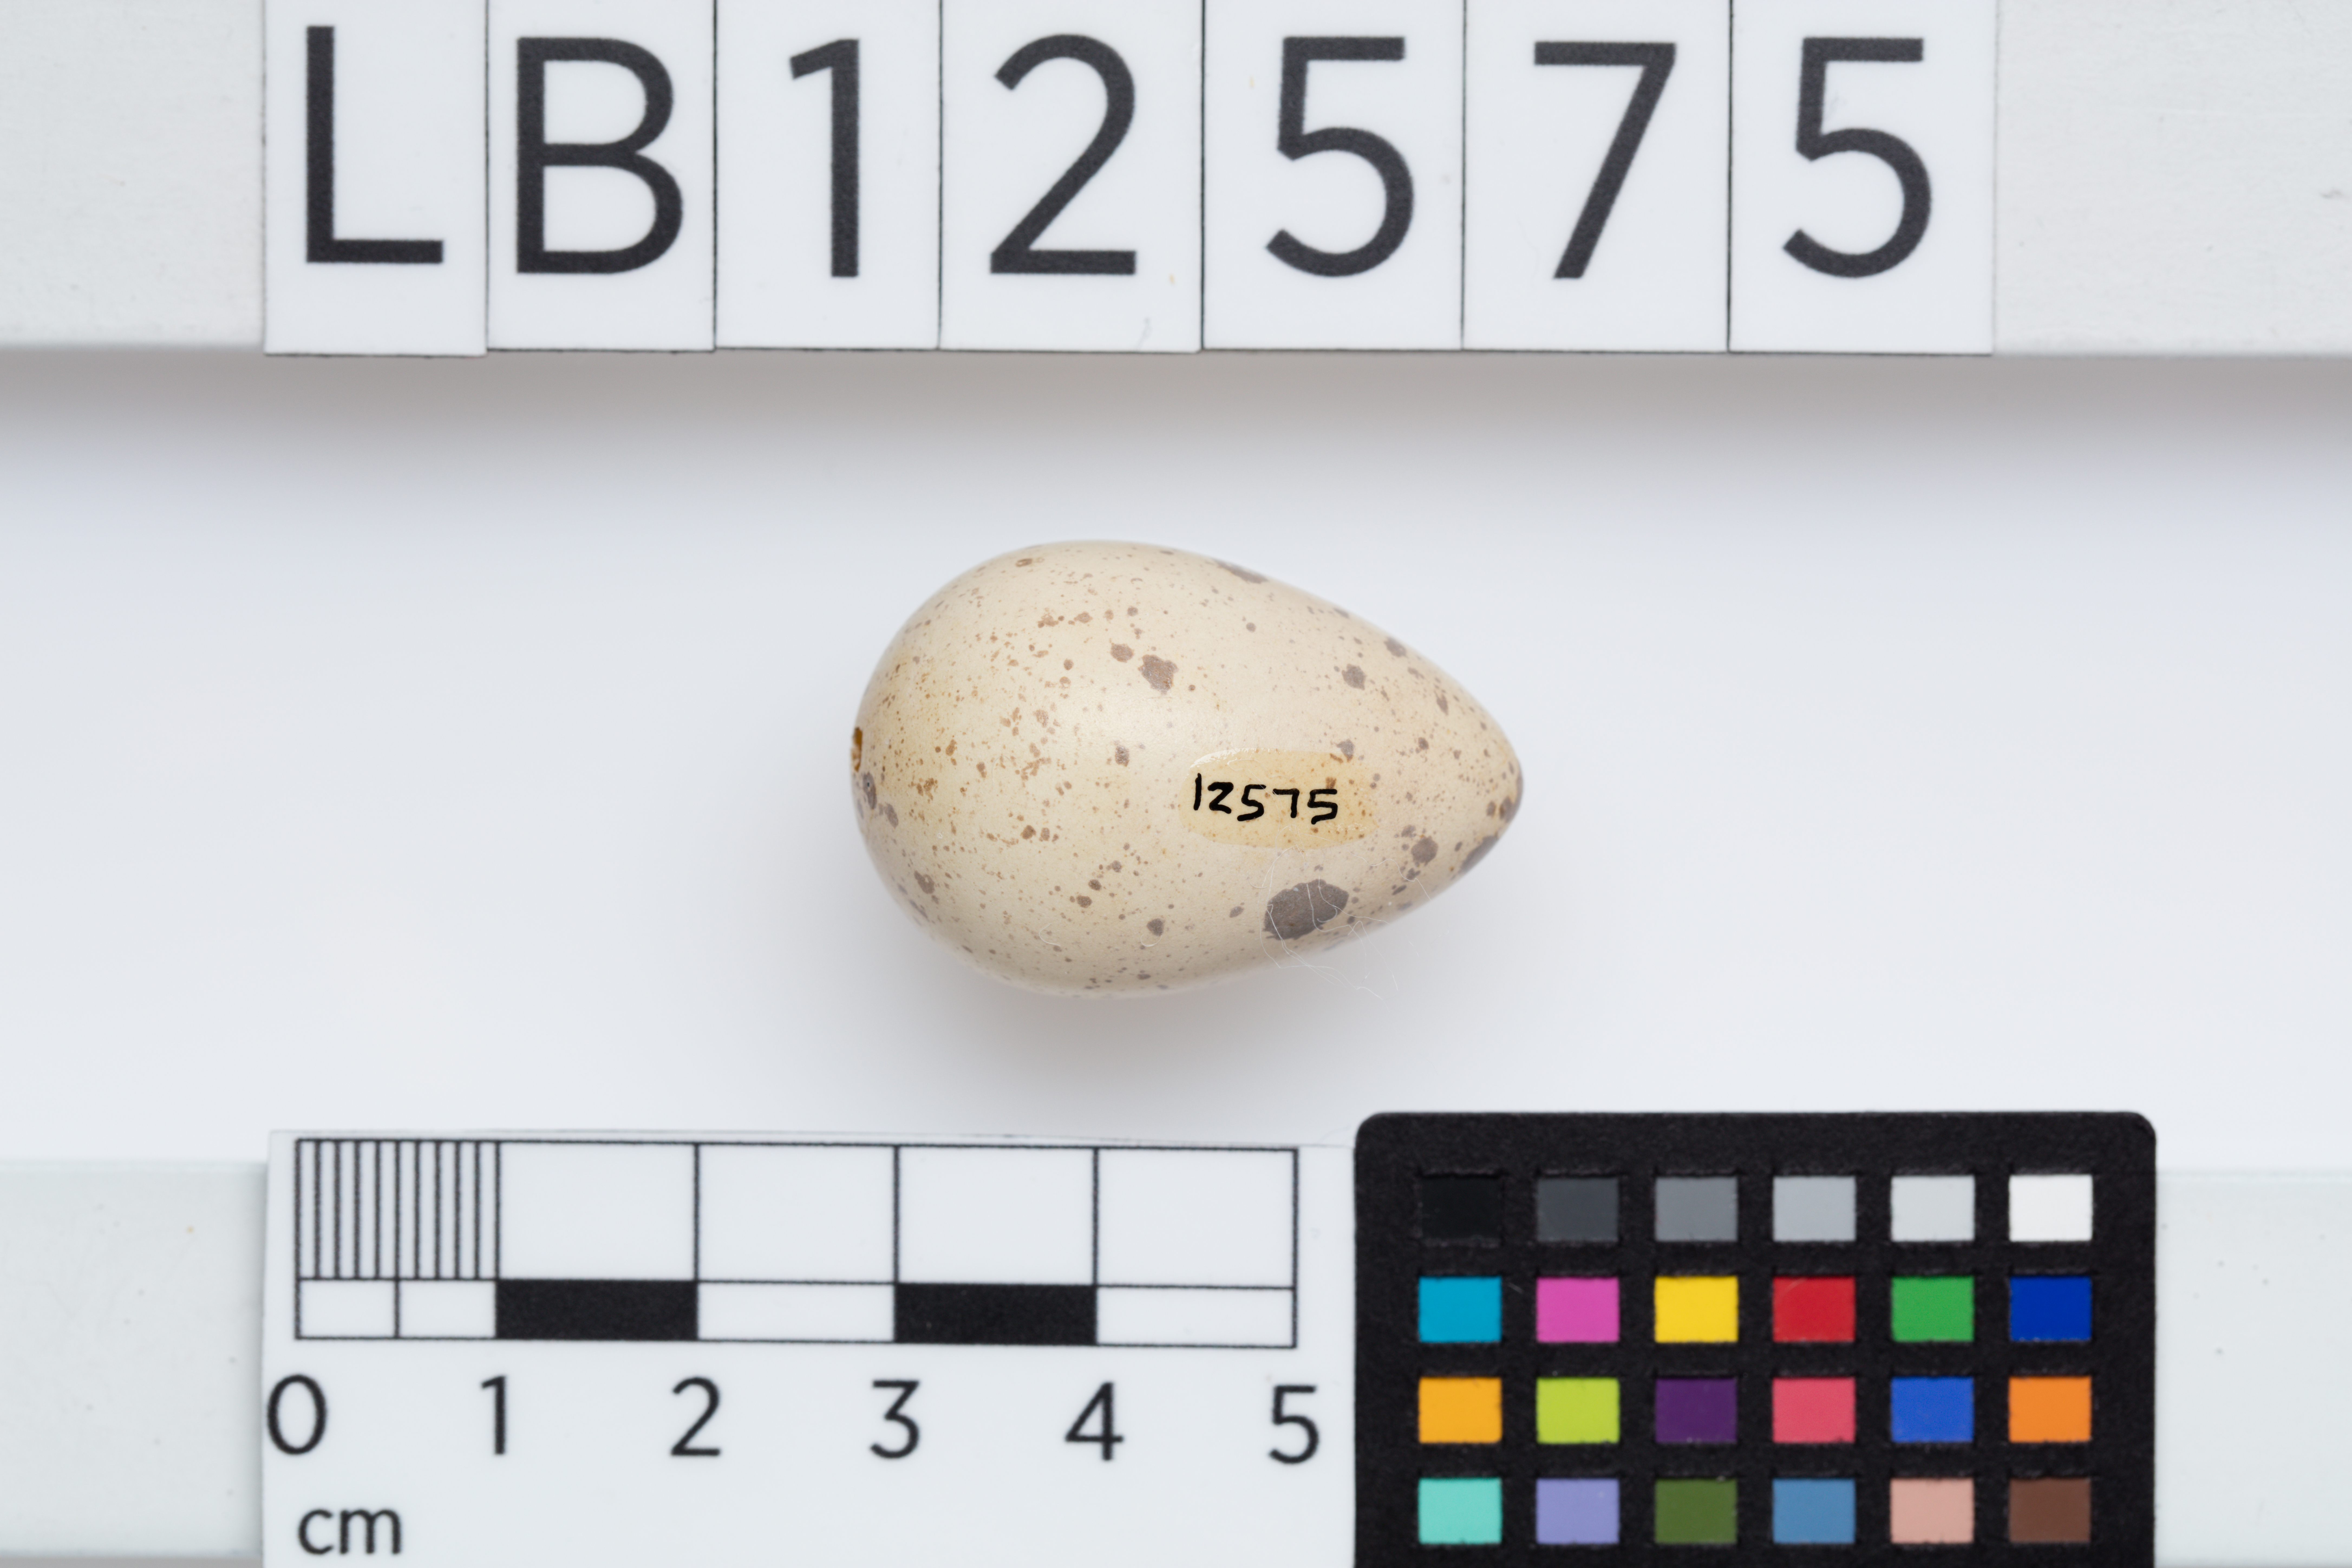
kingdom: Animalia
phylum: Chordata
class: Aves
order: Caprimulgiformes
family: Caprimulgidae
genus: Eurostopodus
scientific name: Eurostopodus argus
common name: Spotted nightjar
